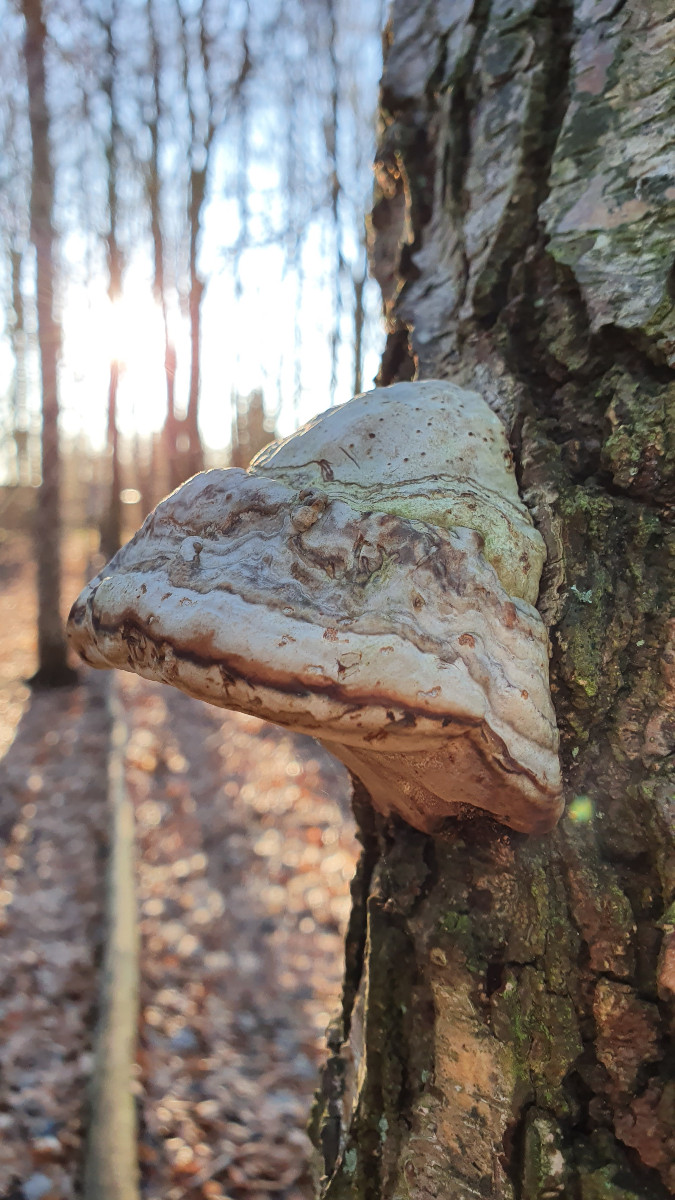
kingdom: Fungi
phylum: Basidiomycota
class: Agaricomycetes
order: Polyporales
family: Polyporaceae
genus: Fomes
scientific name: Fomes fomentarius
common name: tøndersvamp
